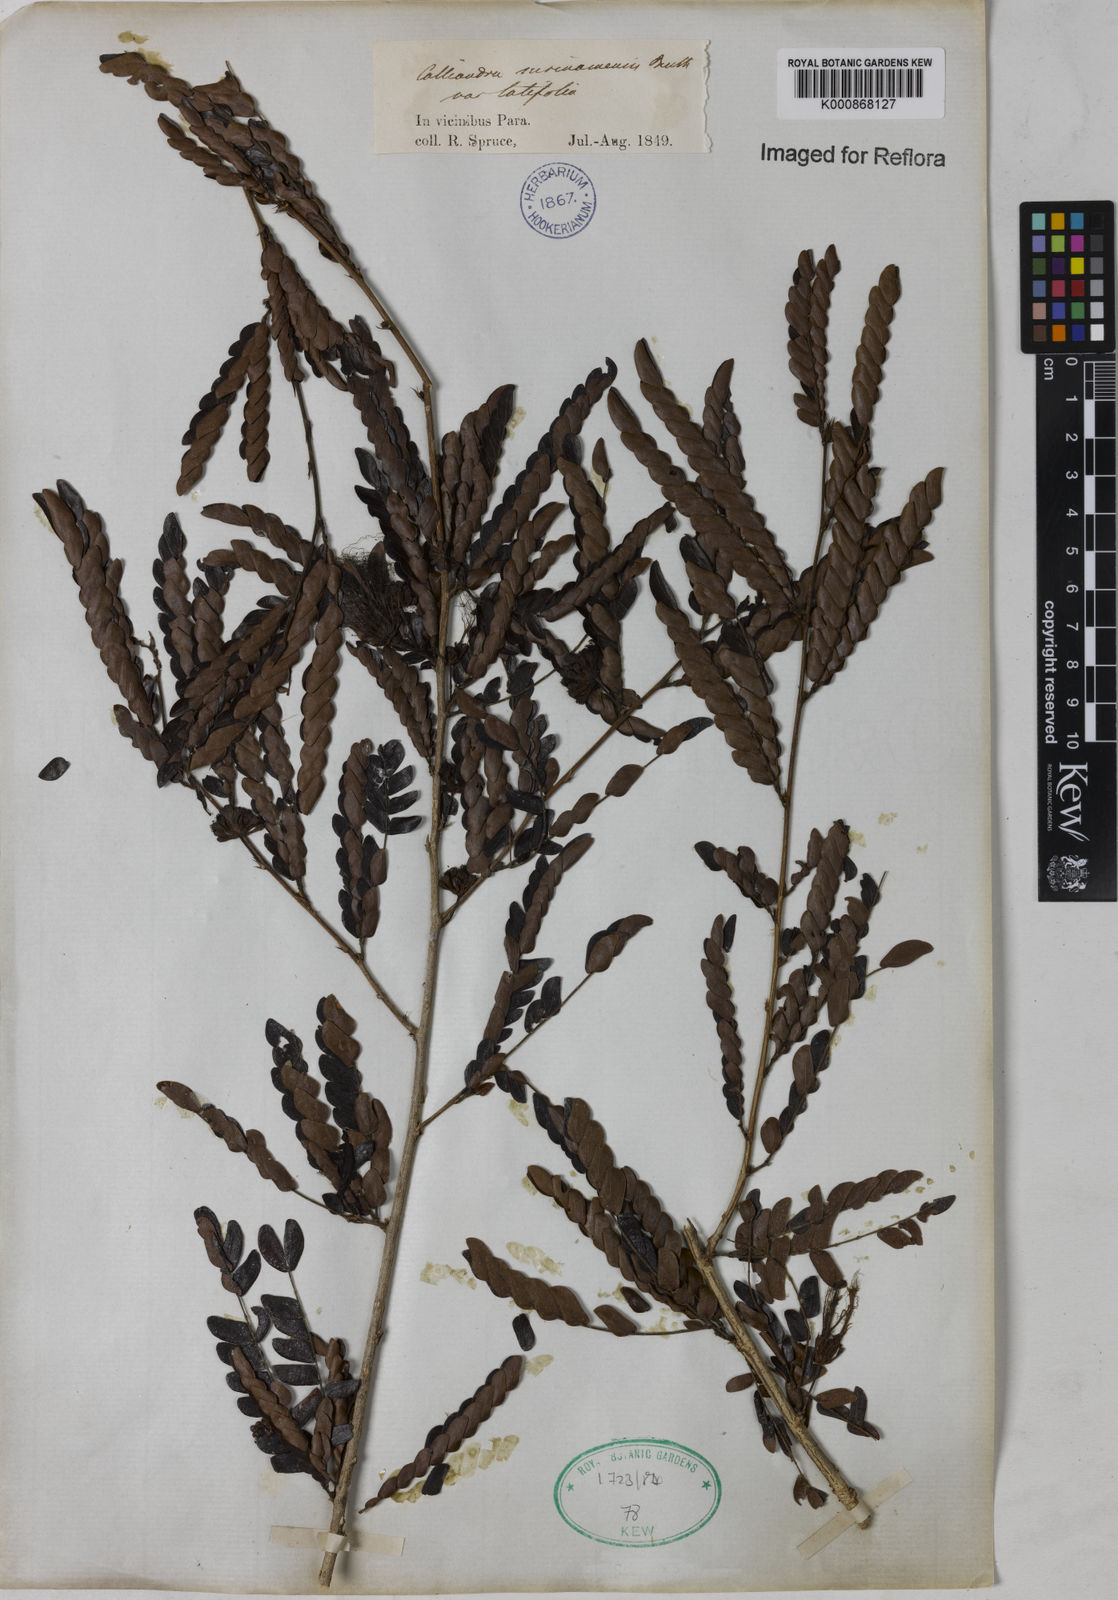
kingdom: Plantae
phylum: Tracheophyta
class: Magnoliopsida
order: Fabales
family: Fabaceae
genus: Calliandra
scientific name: Calliandra surinamensis
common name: Pink powder puff
